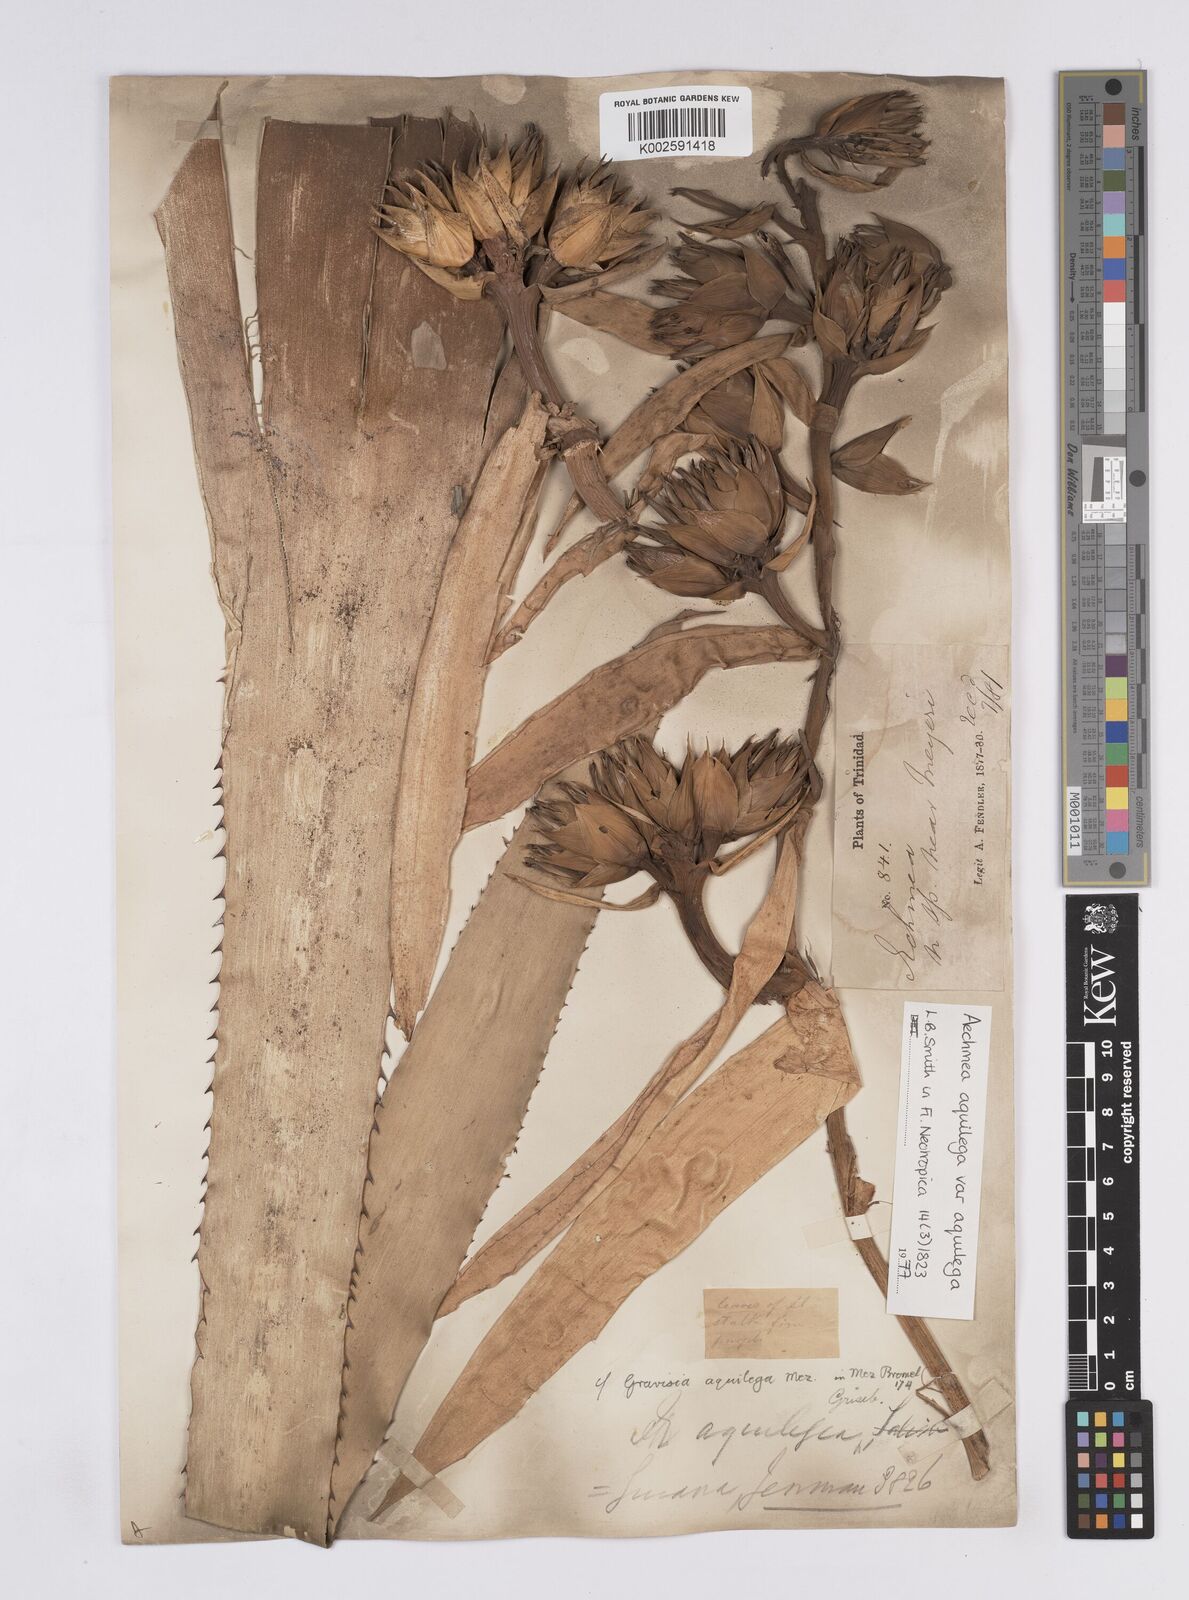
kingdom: Plantae
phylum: Tracheophyta
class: Liliopsida
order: Poales
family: Bromeliaceae
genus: Aechmea
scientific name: Aechmea aquilega
